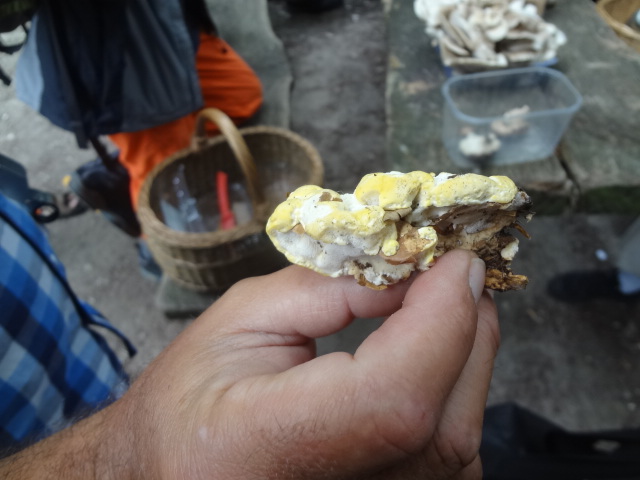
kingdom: Fungi
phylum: Basidiomycota
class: Agaricomycetes
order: Polyporales
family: Steccherinaceae
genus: Antrodiella
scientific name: Antrodiella serpula
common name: gulrandet elastikporesvamp
